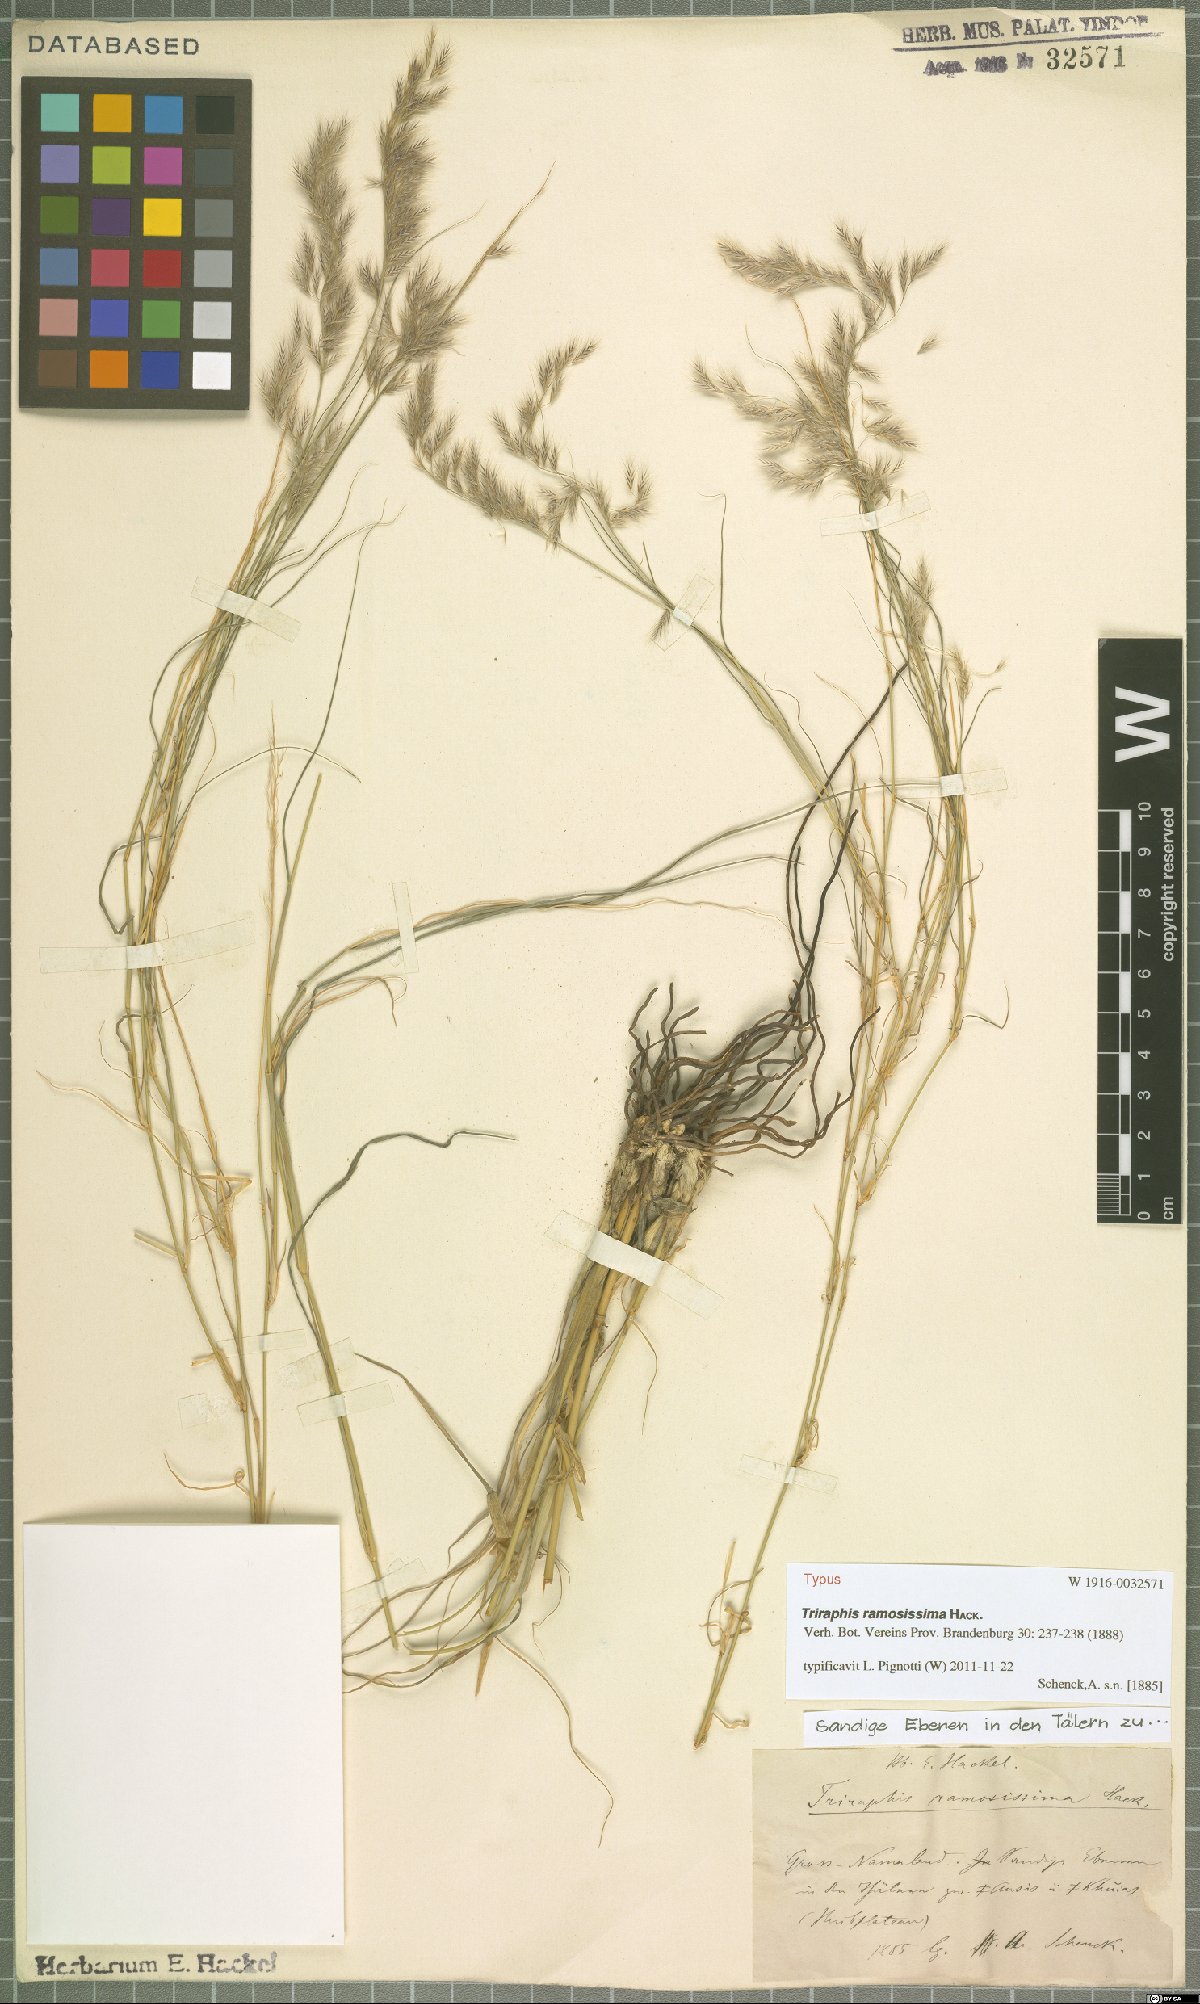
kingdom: Plantae
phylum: Tracheophyta
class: Liliopsida
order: Poales
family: Poaceae
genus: Triraphis
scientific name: Triraphis ramosissima
